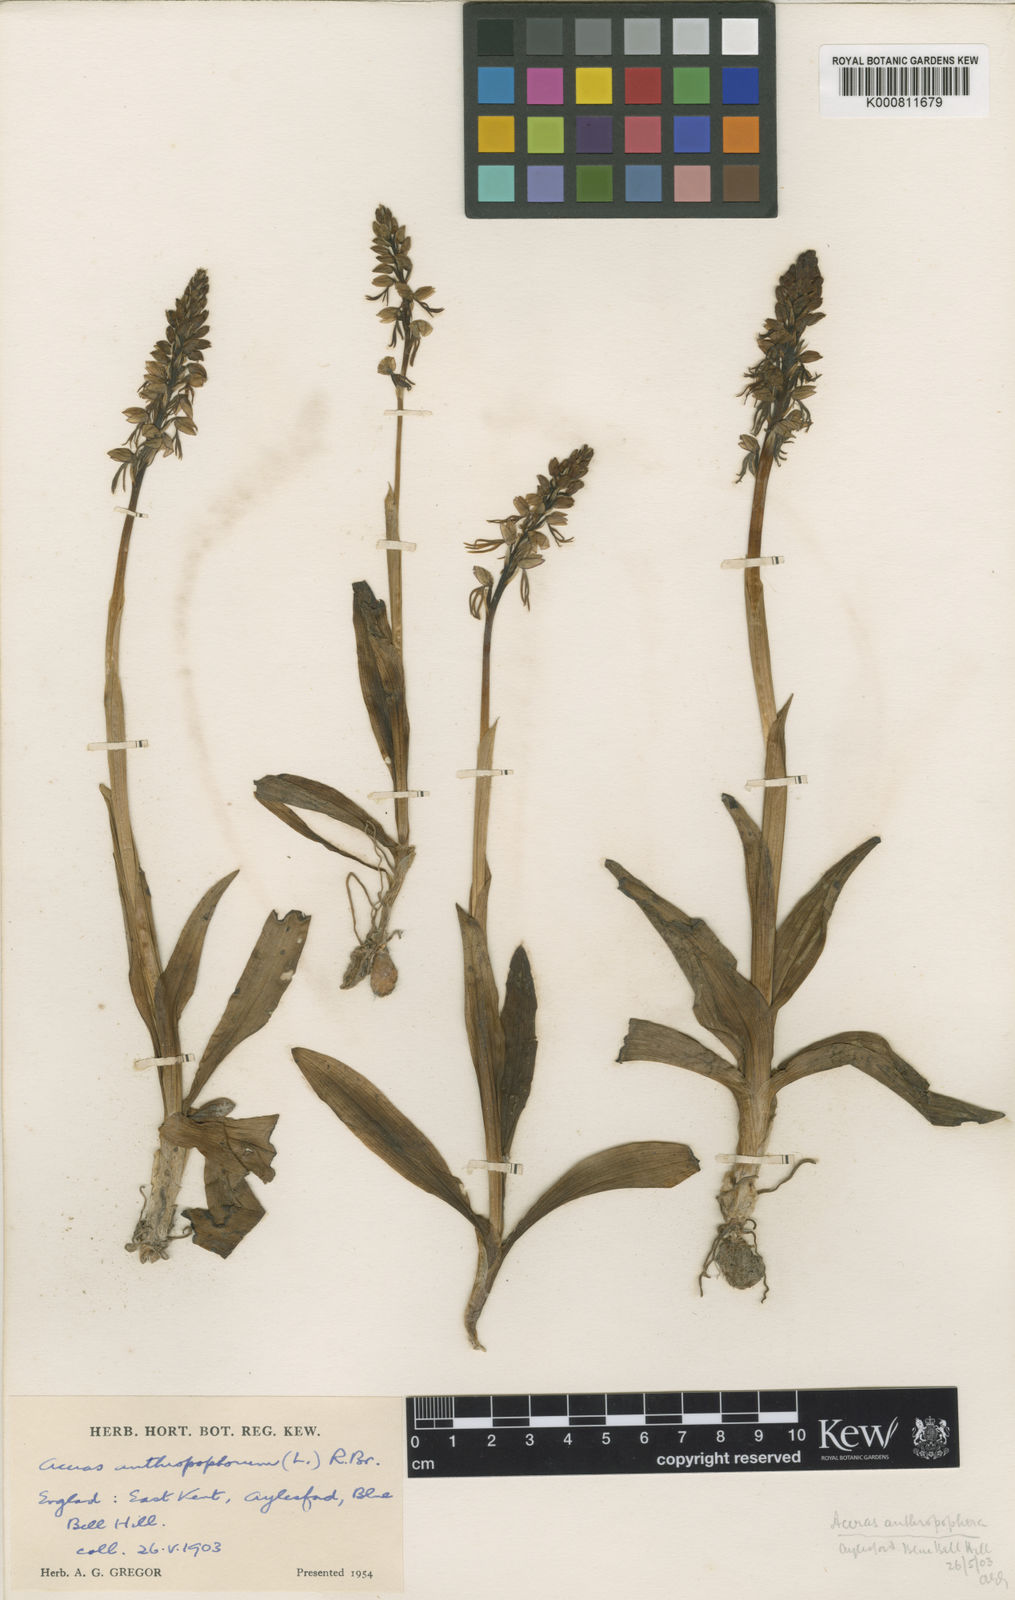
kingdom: Plantae
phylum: Tracheophyta
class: Liliopsida
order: Asparagales
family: Orchidaceae
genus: Orchis
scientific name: Orchis
